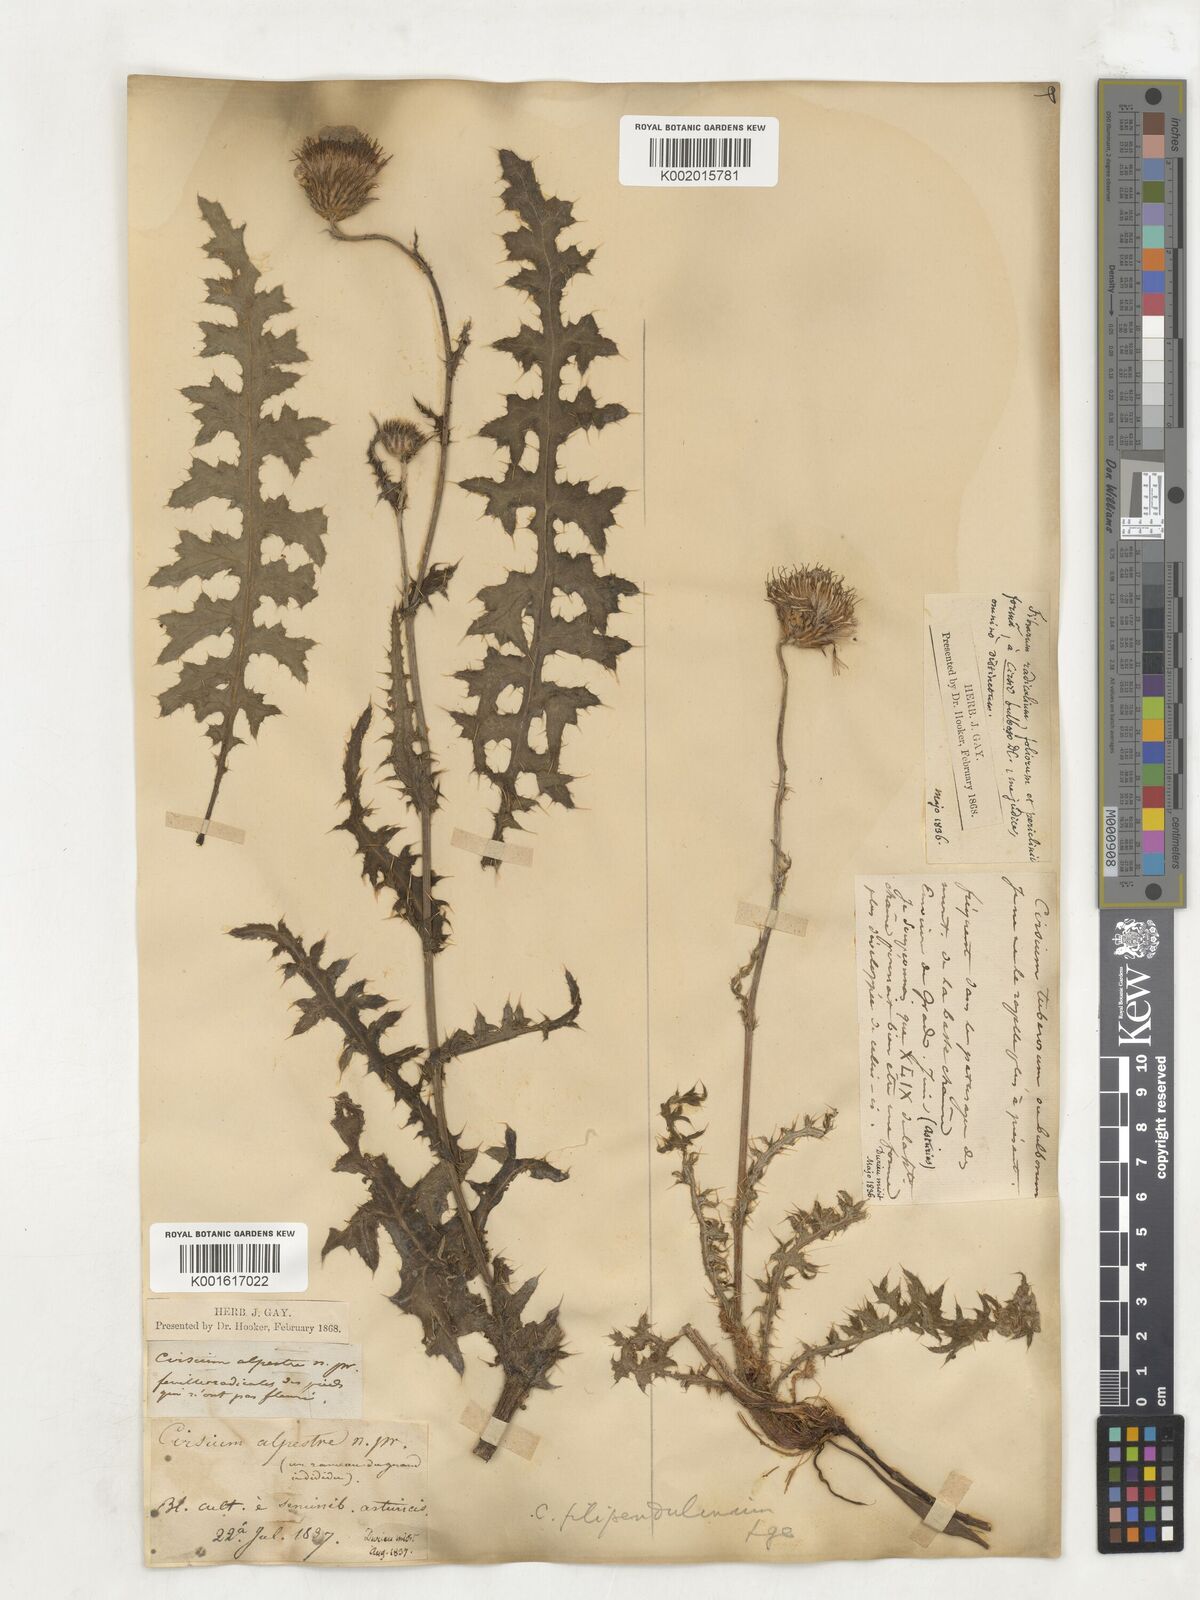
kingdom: Plantae
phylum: Tracheophyta
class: Magnoliopsida
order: Asterales
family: Asteraceae
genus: Cirsium
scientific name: Cirsium
